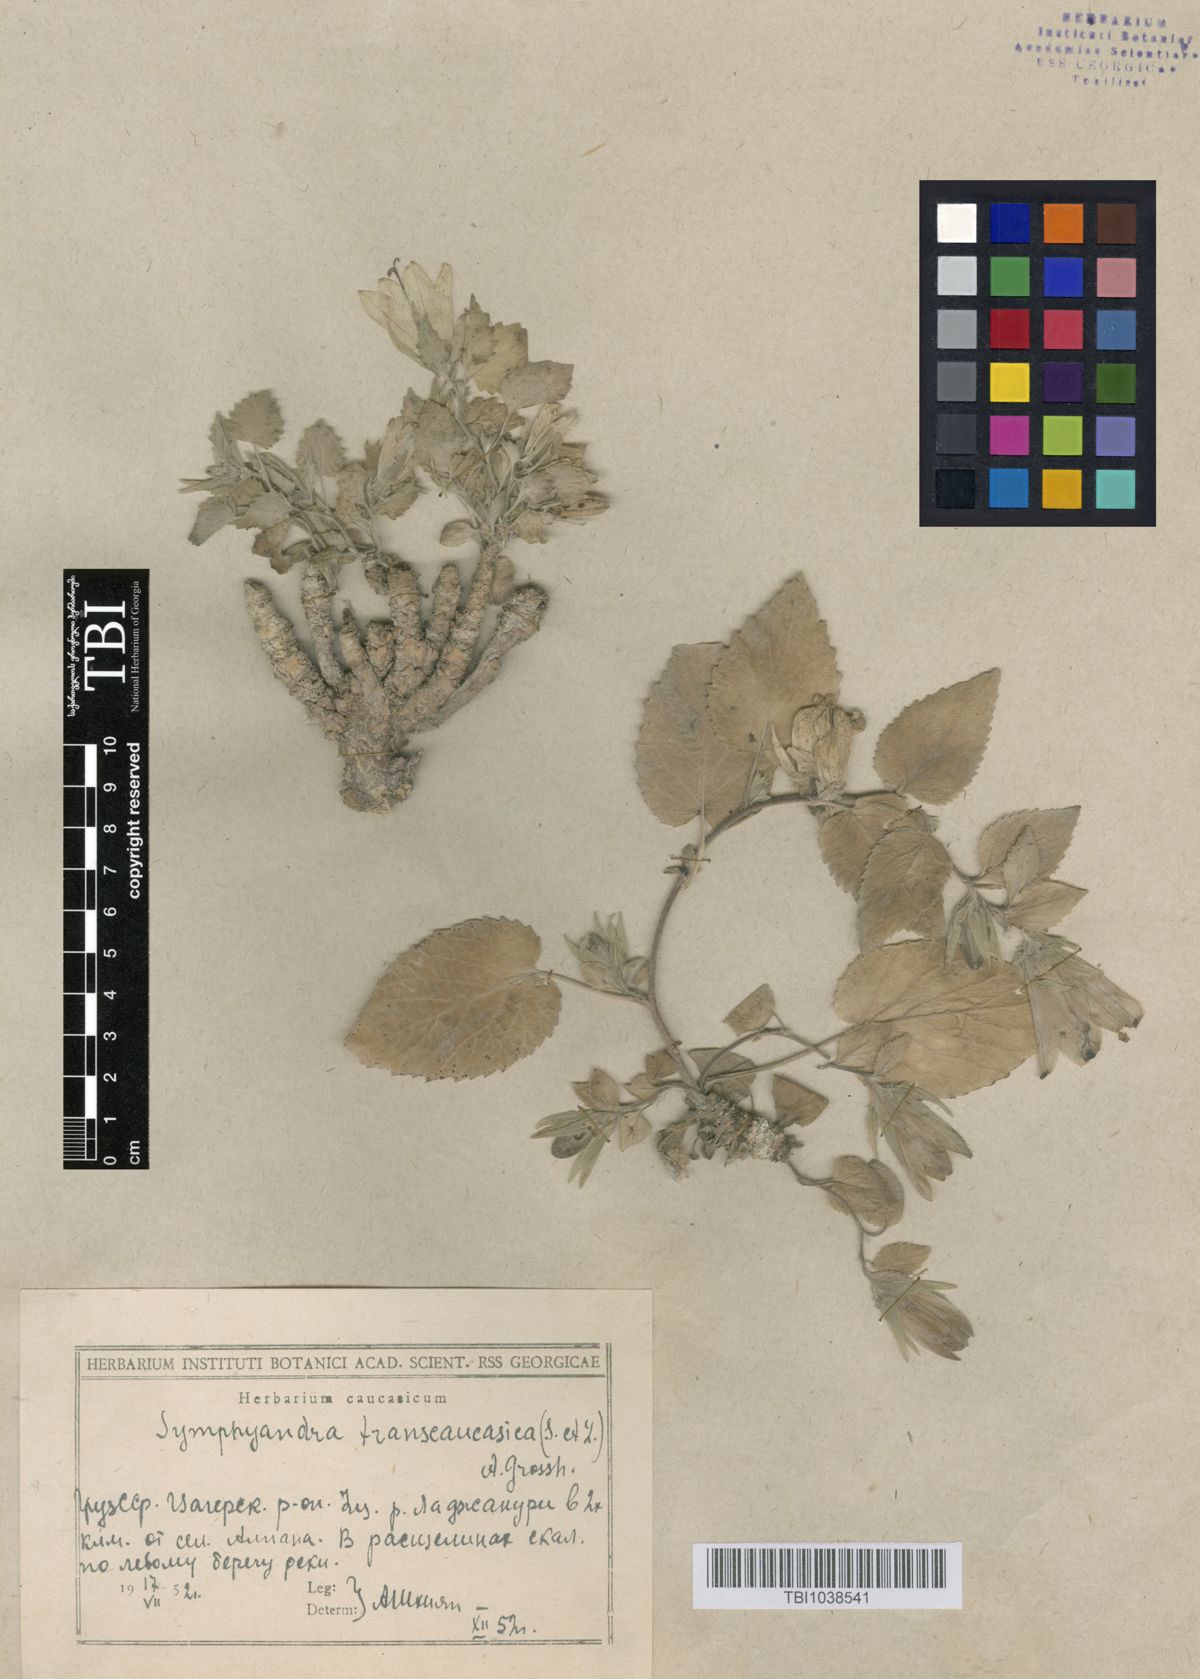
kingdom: Plantae
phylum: Tracheophyta
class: Magnoliopsida
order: Asterales
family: Campanulaceae
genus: Campanula
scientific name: Campanula pendula
